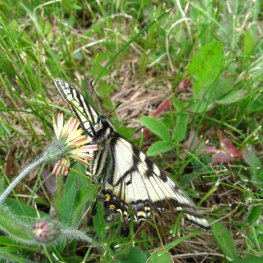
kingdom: Animalia
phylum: Arthropoda
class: Insecta
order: Lepidoptera
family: Papilionidae
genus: Pterourus
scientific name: Pterourus canadensis
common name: Canadian Tiger Swallowtail
